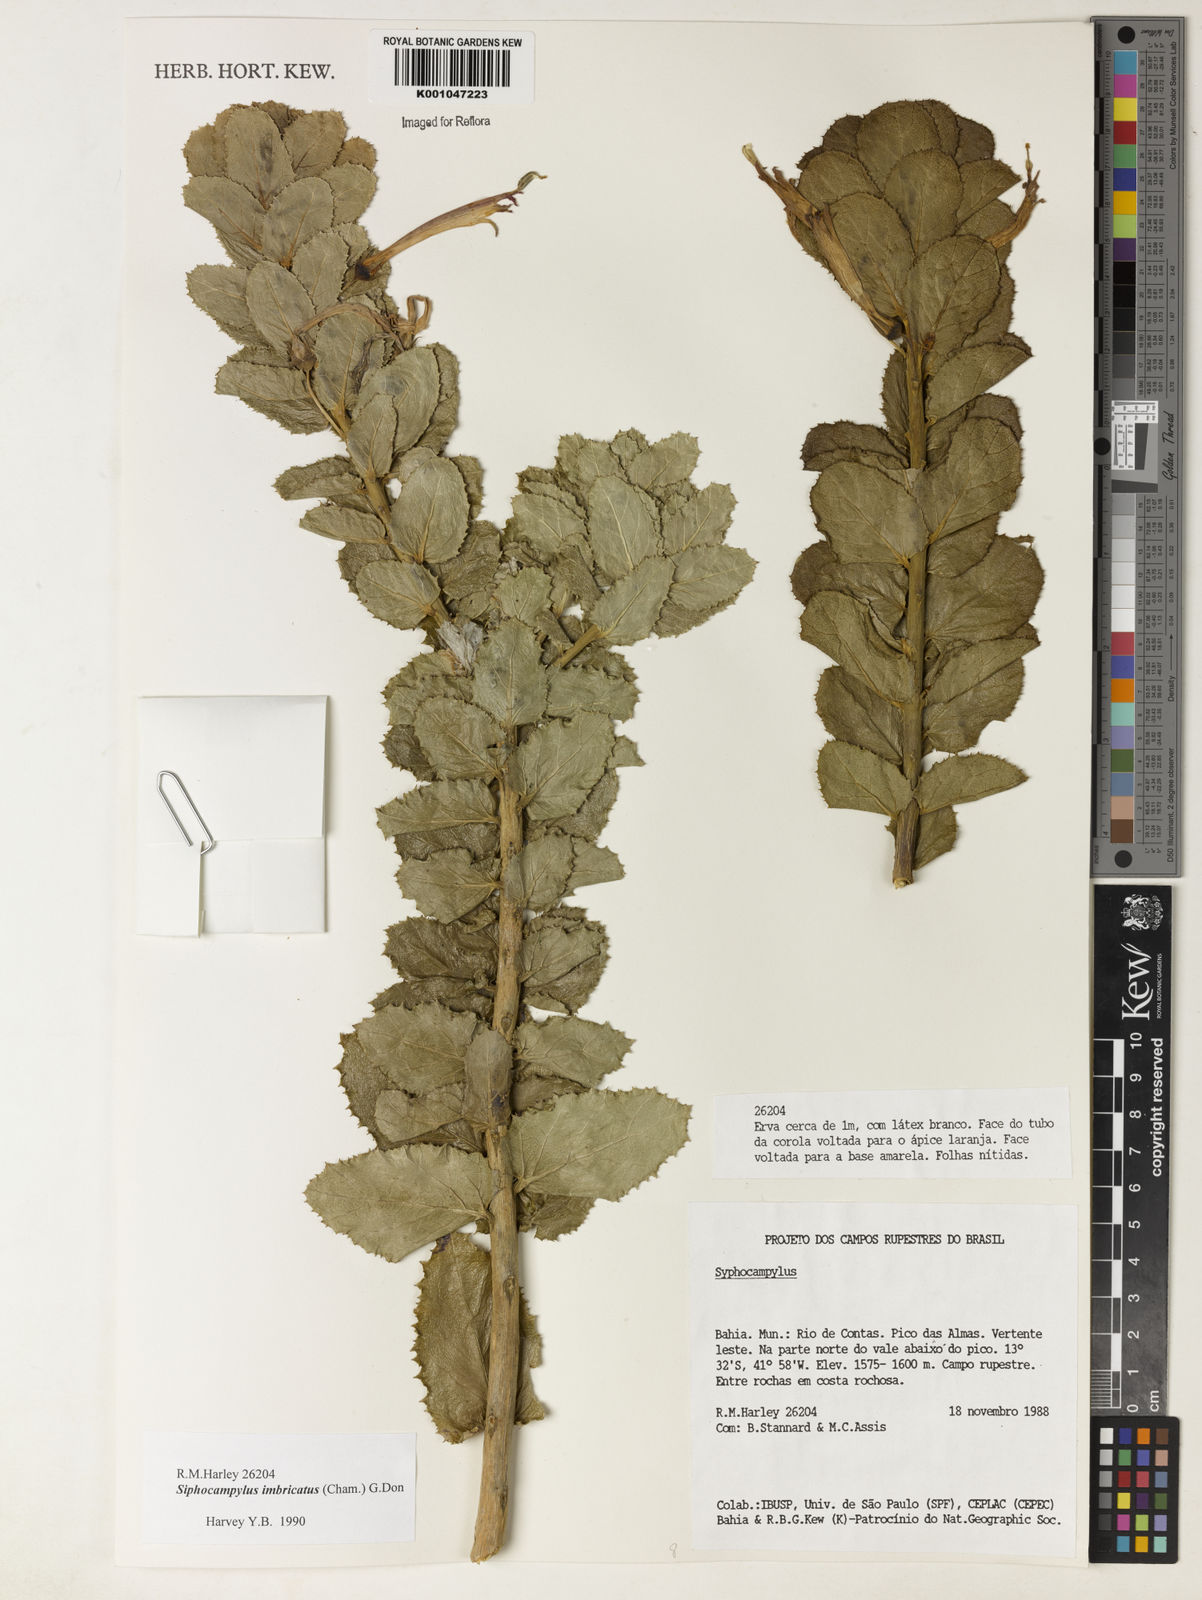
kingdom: Plantae
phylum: Tracheophyta
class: Magnoliopsida
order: Asterales
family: Campanulaceae
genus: Siphocampylus
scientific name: Siphocampylus imbricatus
